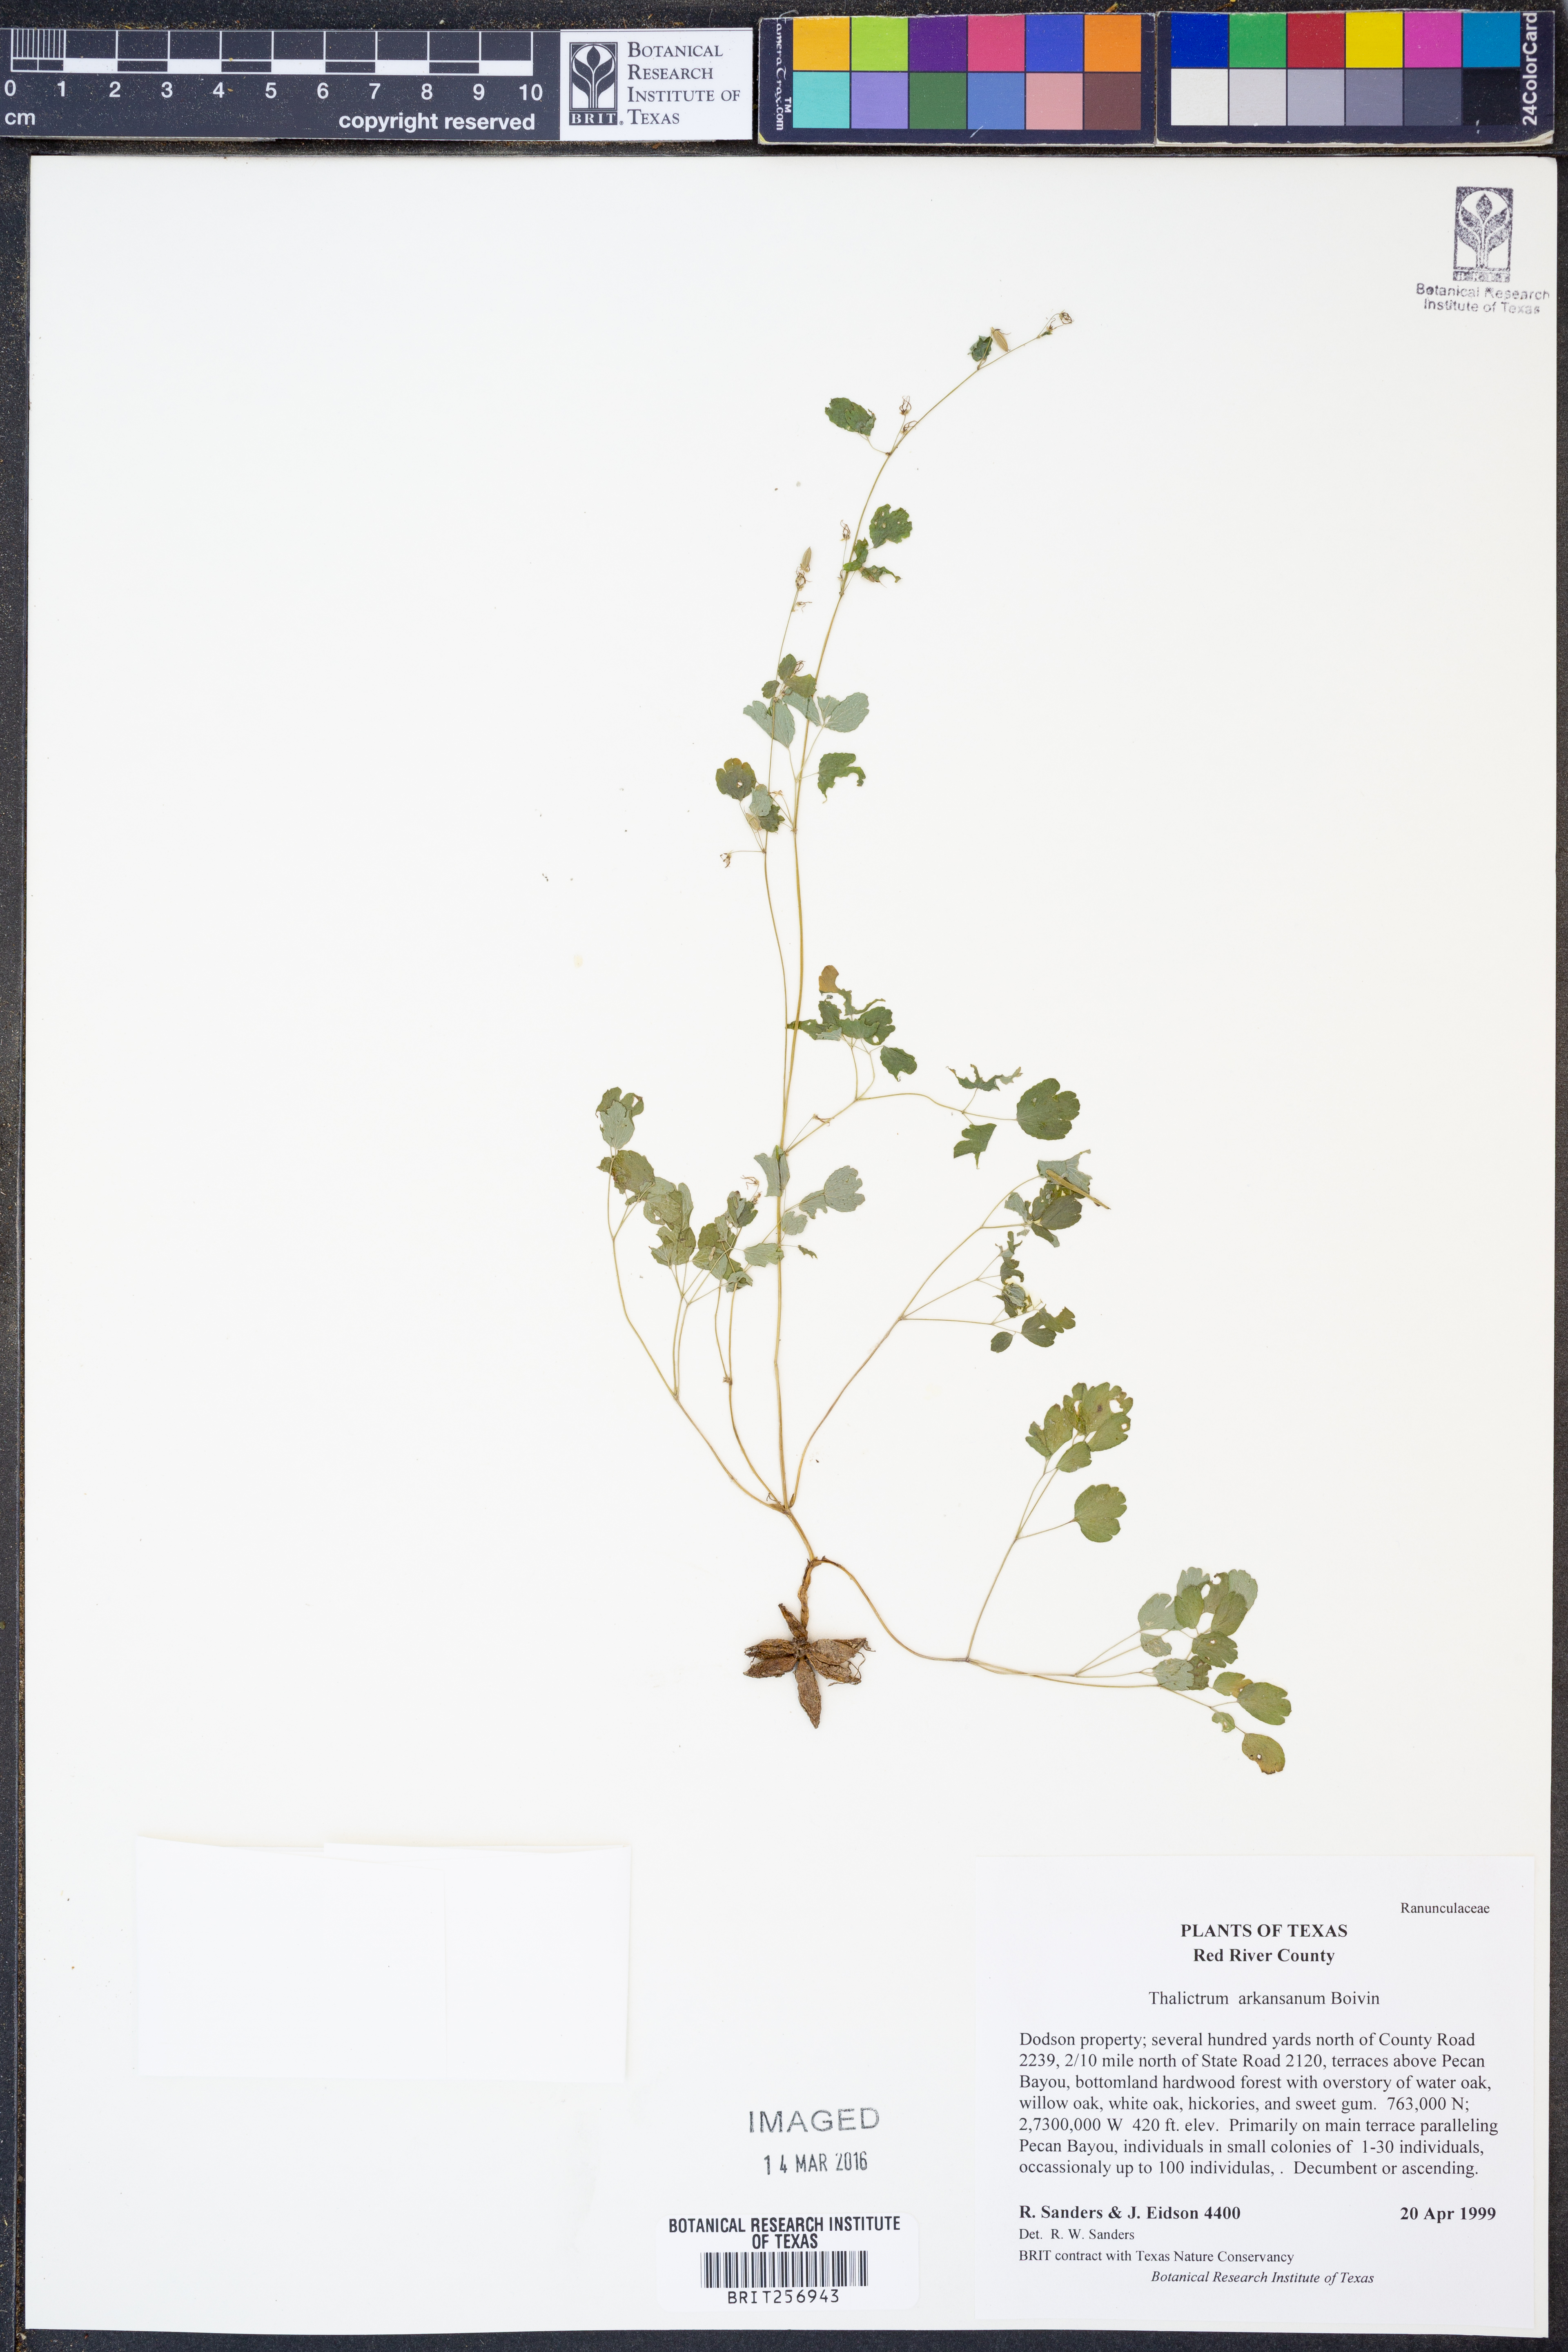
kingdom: Plantae
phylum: Tracheophyta
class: Magnoliopsida
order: Ranunculales
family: Ranunculaceae
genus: Thalictrum
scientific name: Thalictrum arkansanum
